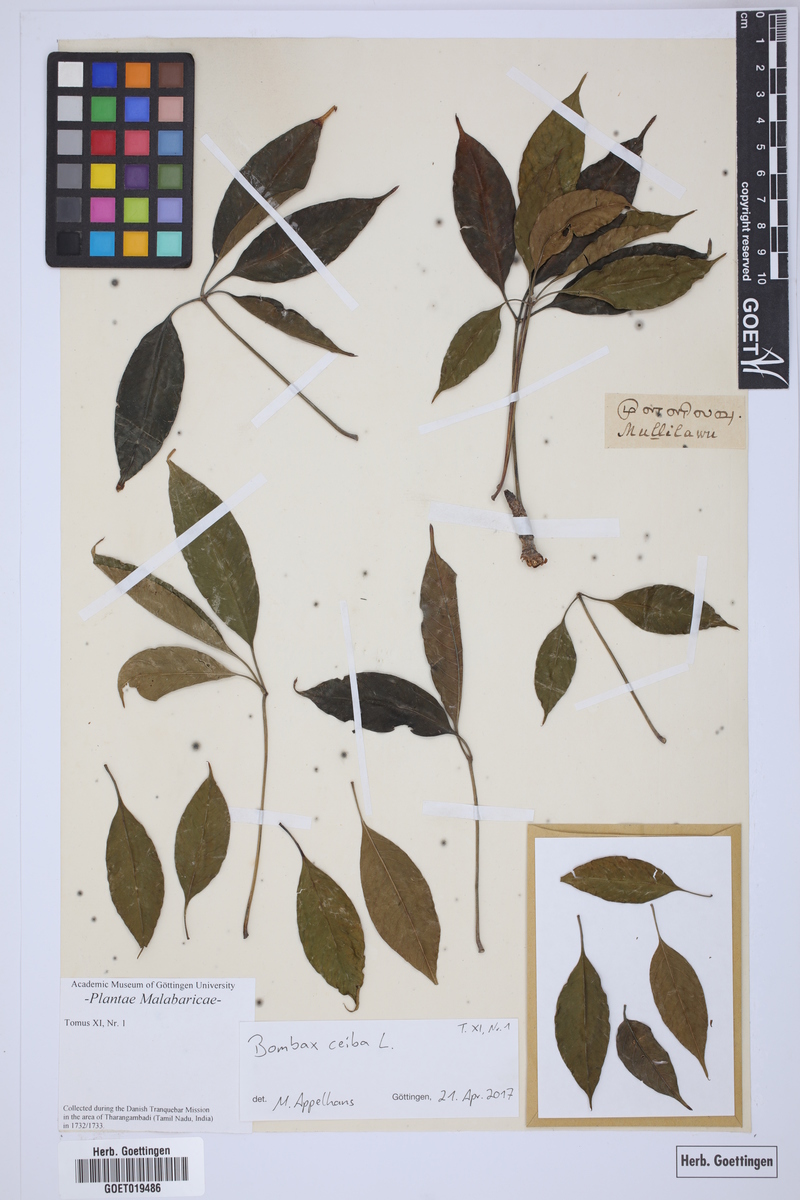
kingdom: Plantae
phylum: Tracheophyta
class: Magnoliopsida
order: Malvales
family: Malvaceae
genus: Bombax
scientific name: Bombax ceiba
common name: Northern-cottonwood
